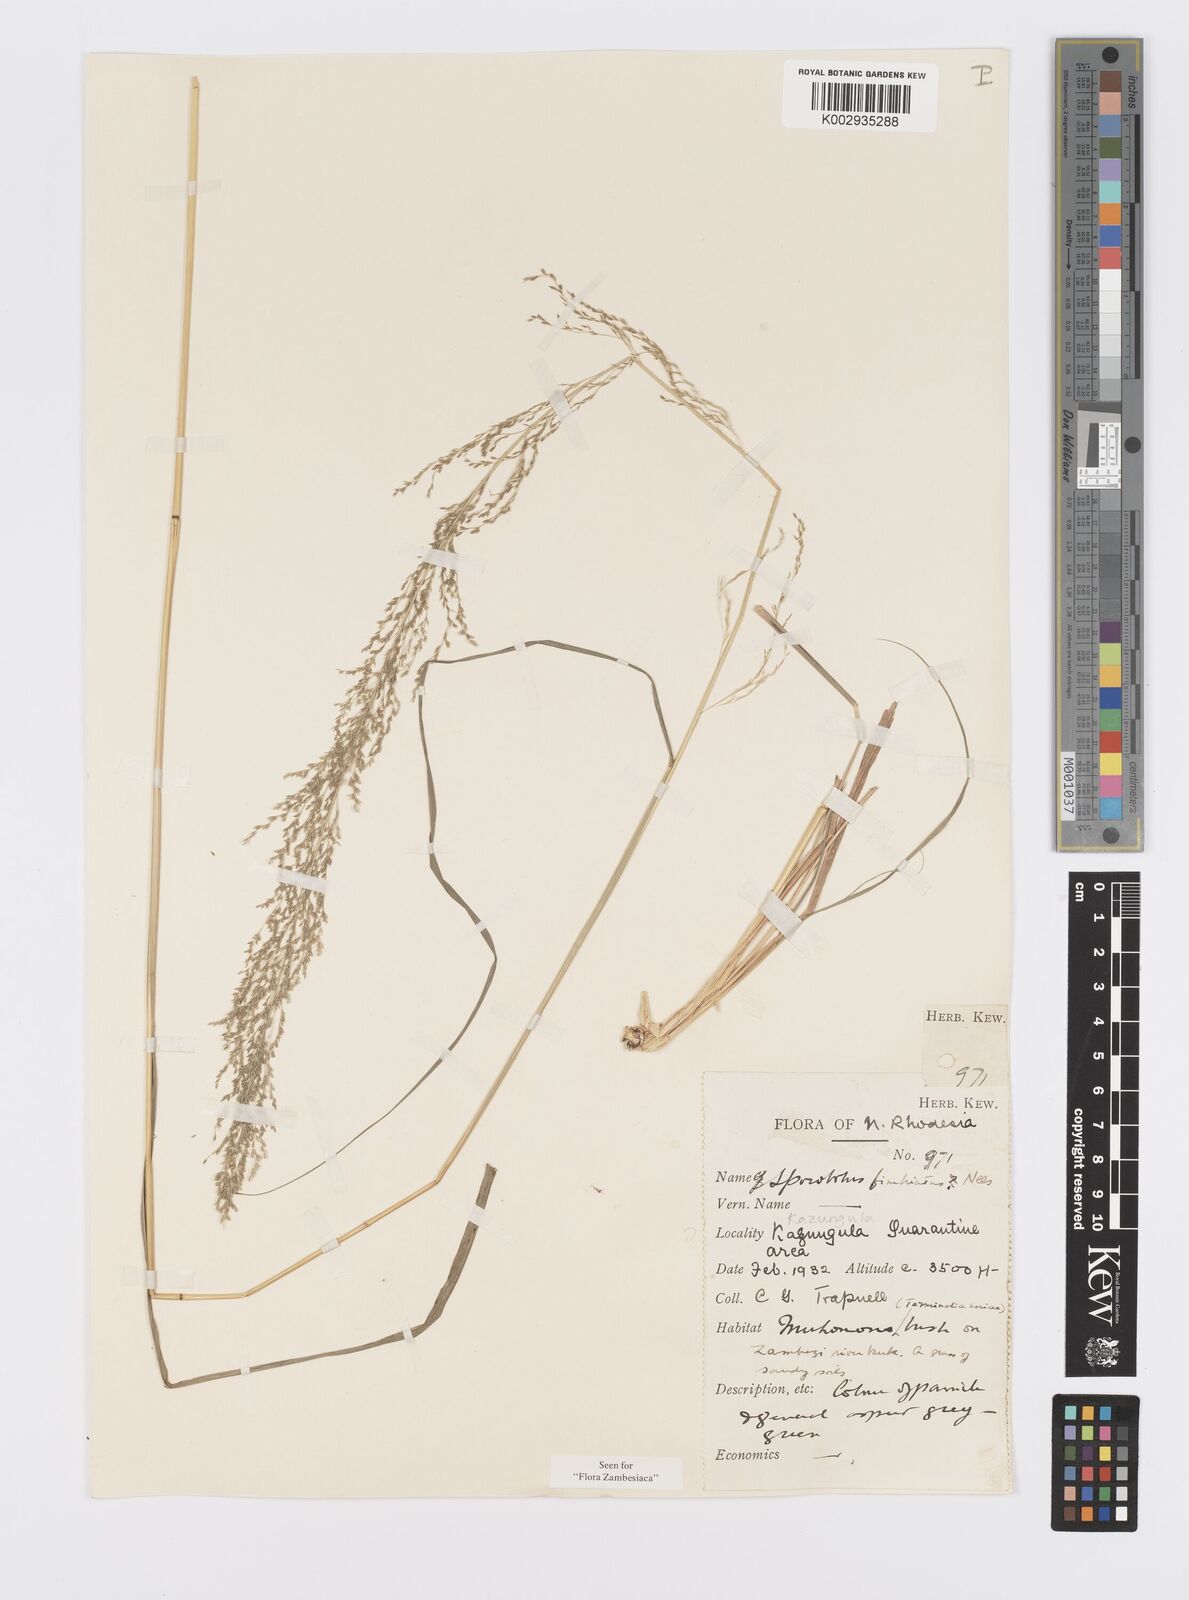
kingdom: Plantae
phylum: Tracheophyta
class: Liliopsida
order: Poales
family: Poaceae
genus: Sporobolus
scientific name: Sporobolus fimbriatus
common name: Fringed dropseed
